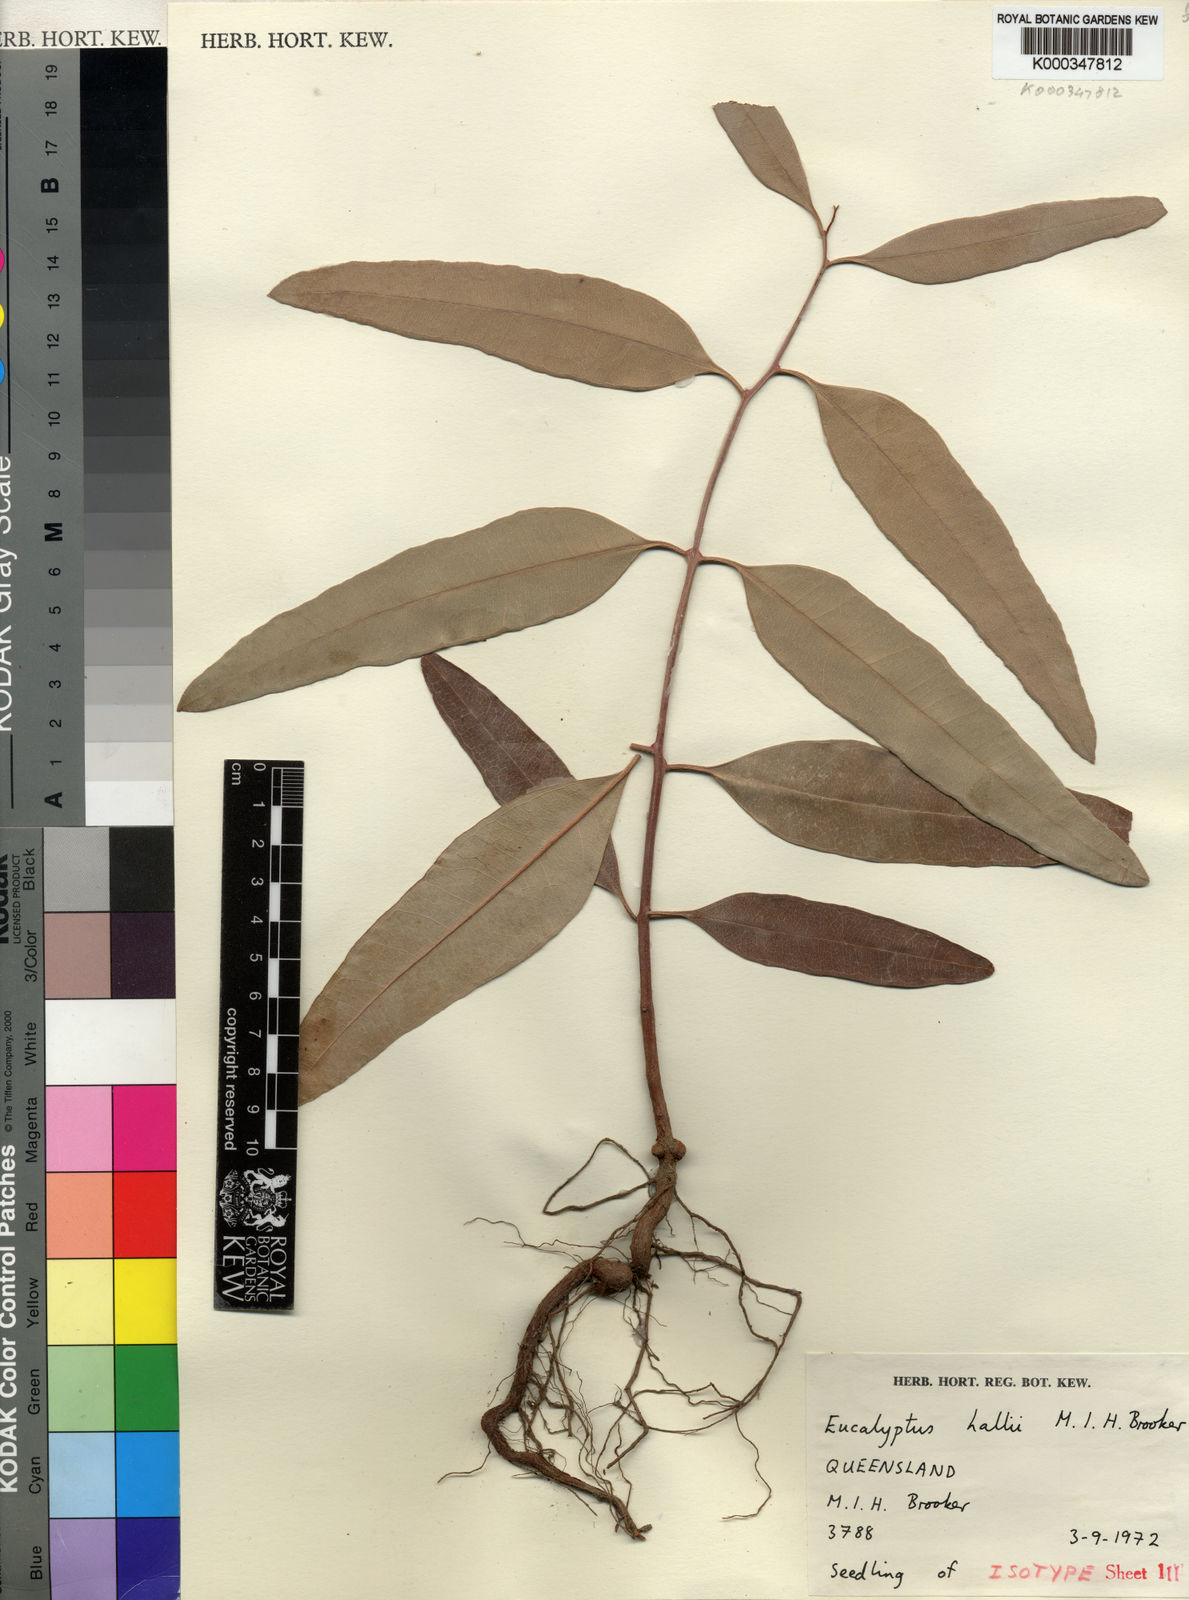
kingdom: Plantae
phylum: Tracheophyta
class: Magnoliopsida
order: Myrtales
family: Myrtaceae
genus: Eucalyptus
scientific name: Eucalyptus hallii
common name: Goodwood gum
